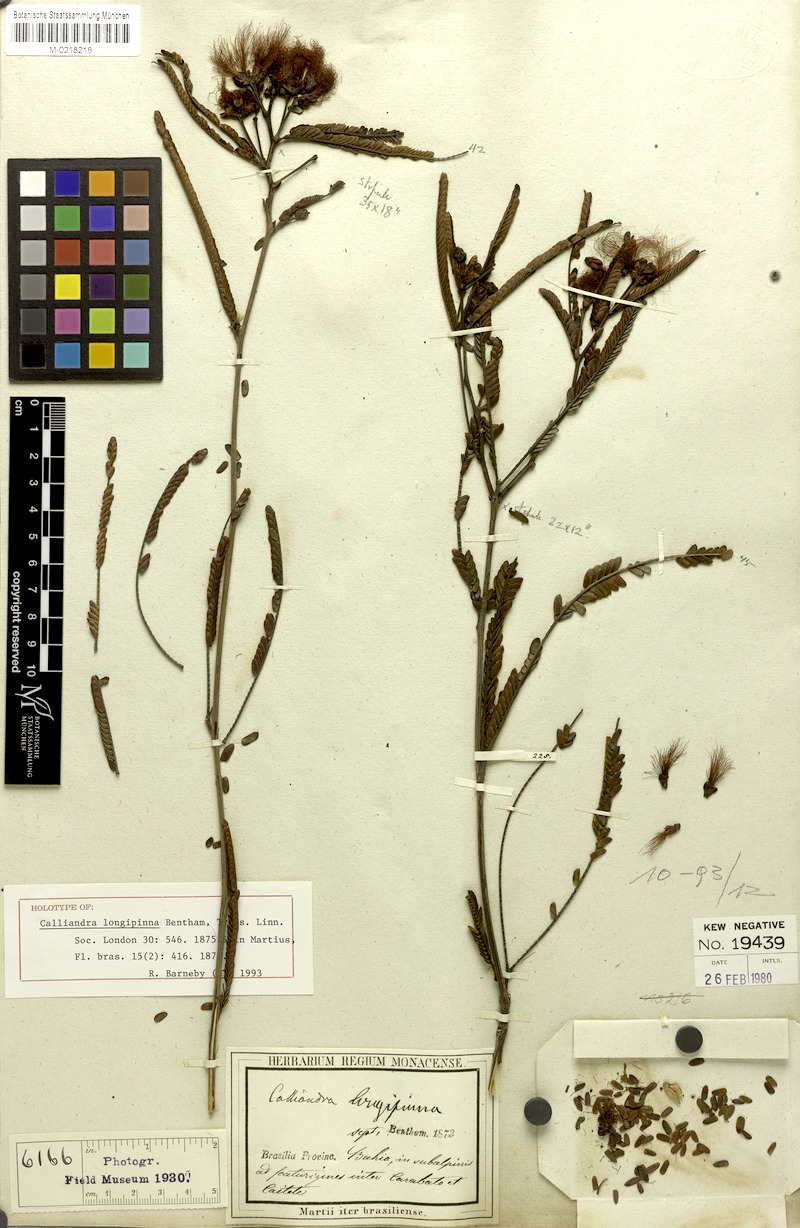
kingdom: Plantae
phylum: Tracheophyta
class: Magnoliopsida
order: Fabales
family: Fabaceae
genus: Calliandra
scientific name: Calliandra longipinna
